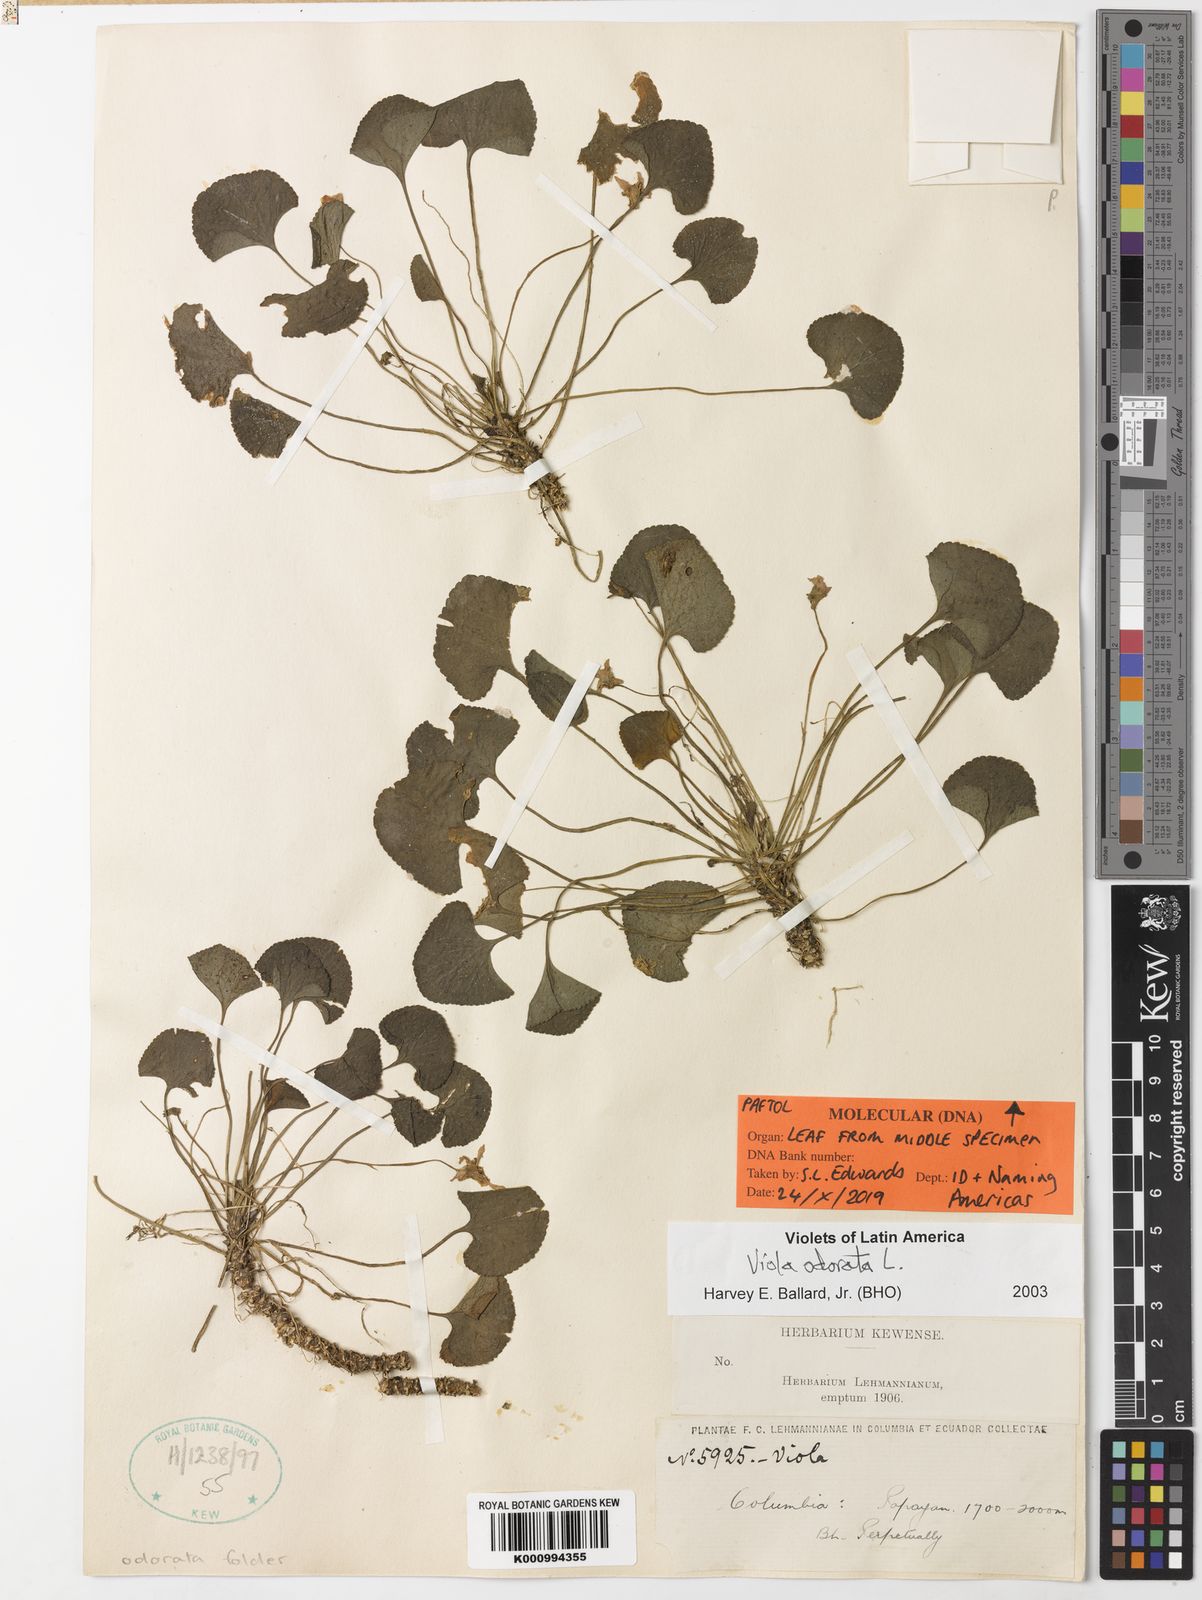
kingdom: Plantae
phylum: Tracheophyta
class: Magnoliopsida
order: Malpighiales
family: Violaceae
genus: Viola
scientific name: Viola odorata
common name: Sweet violet
